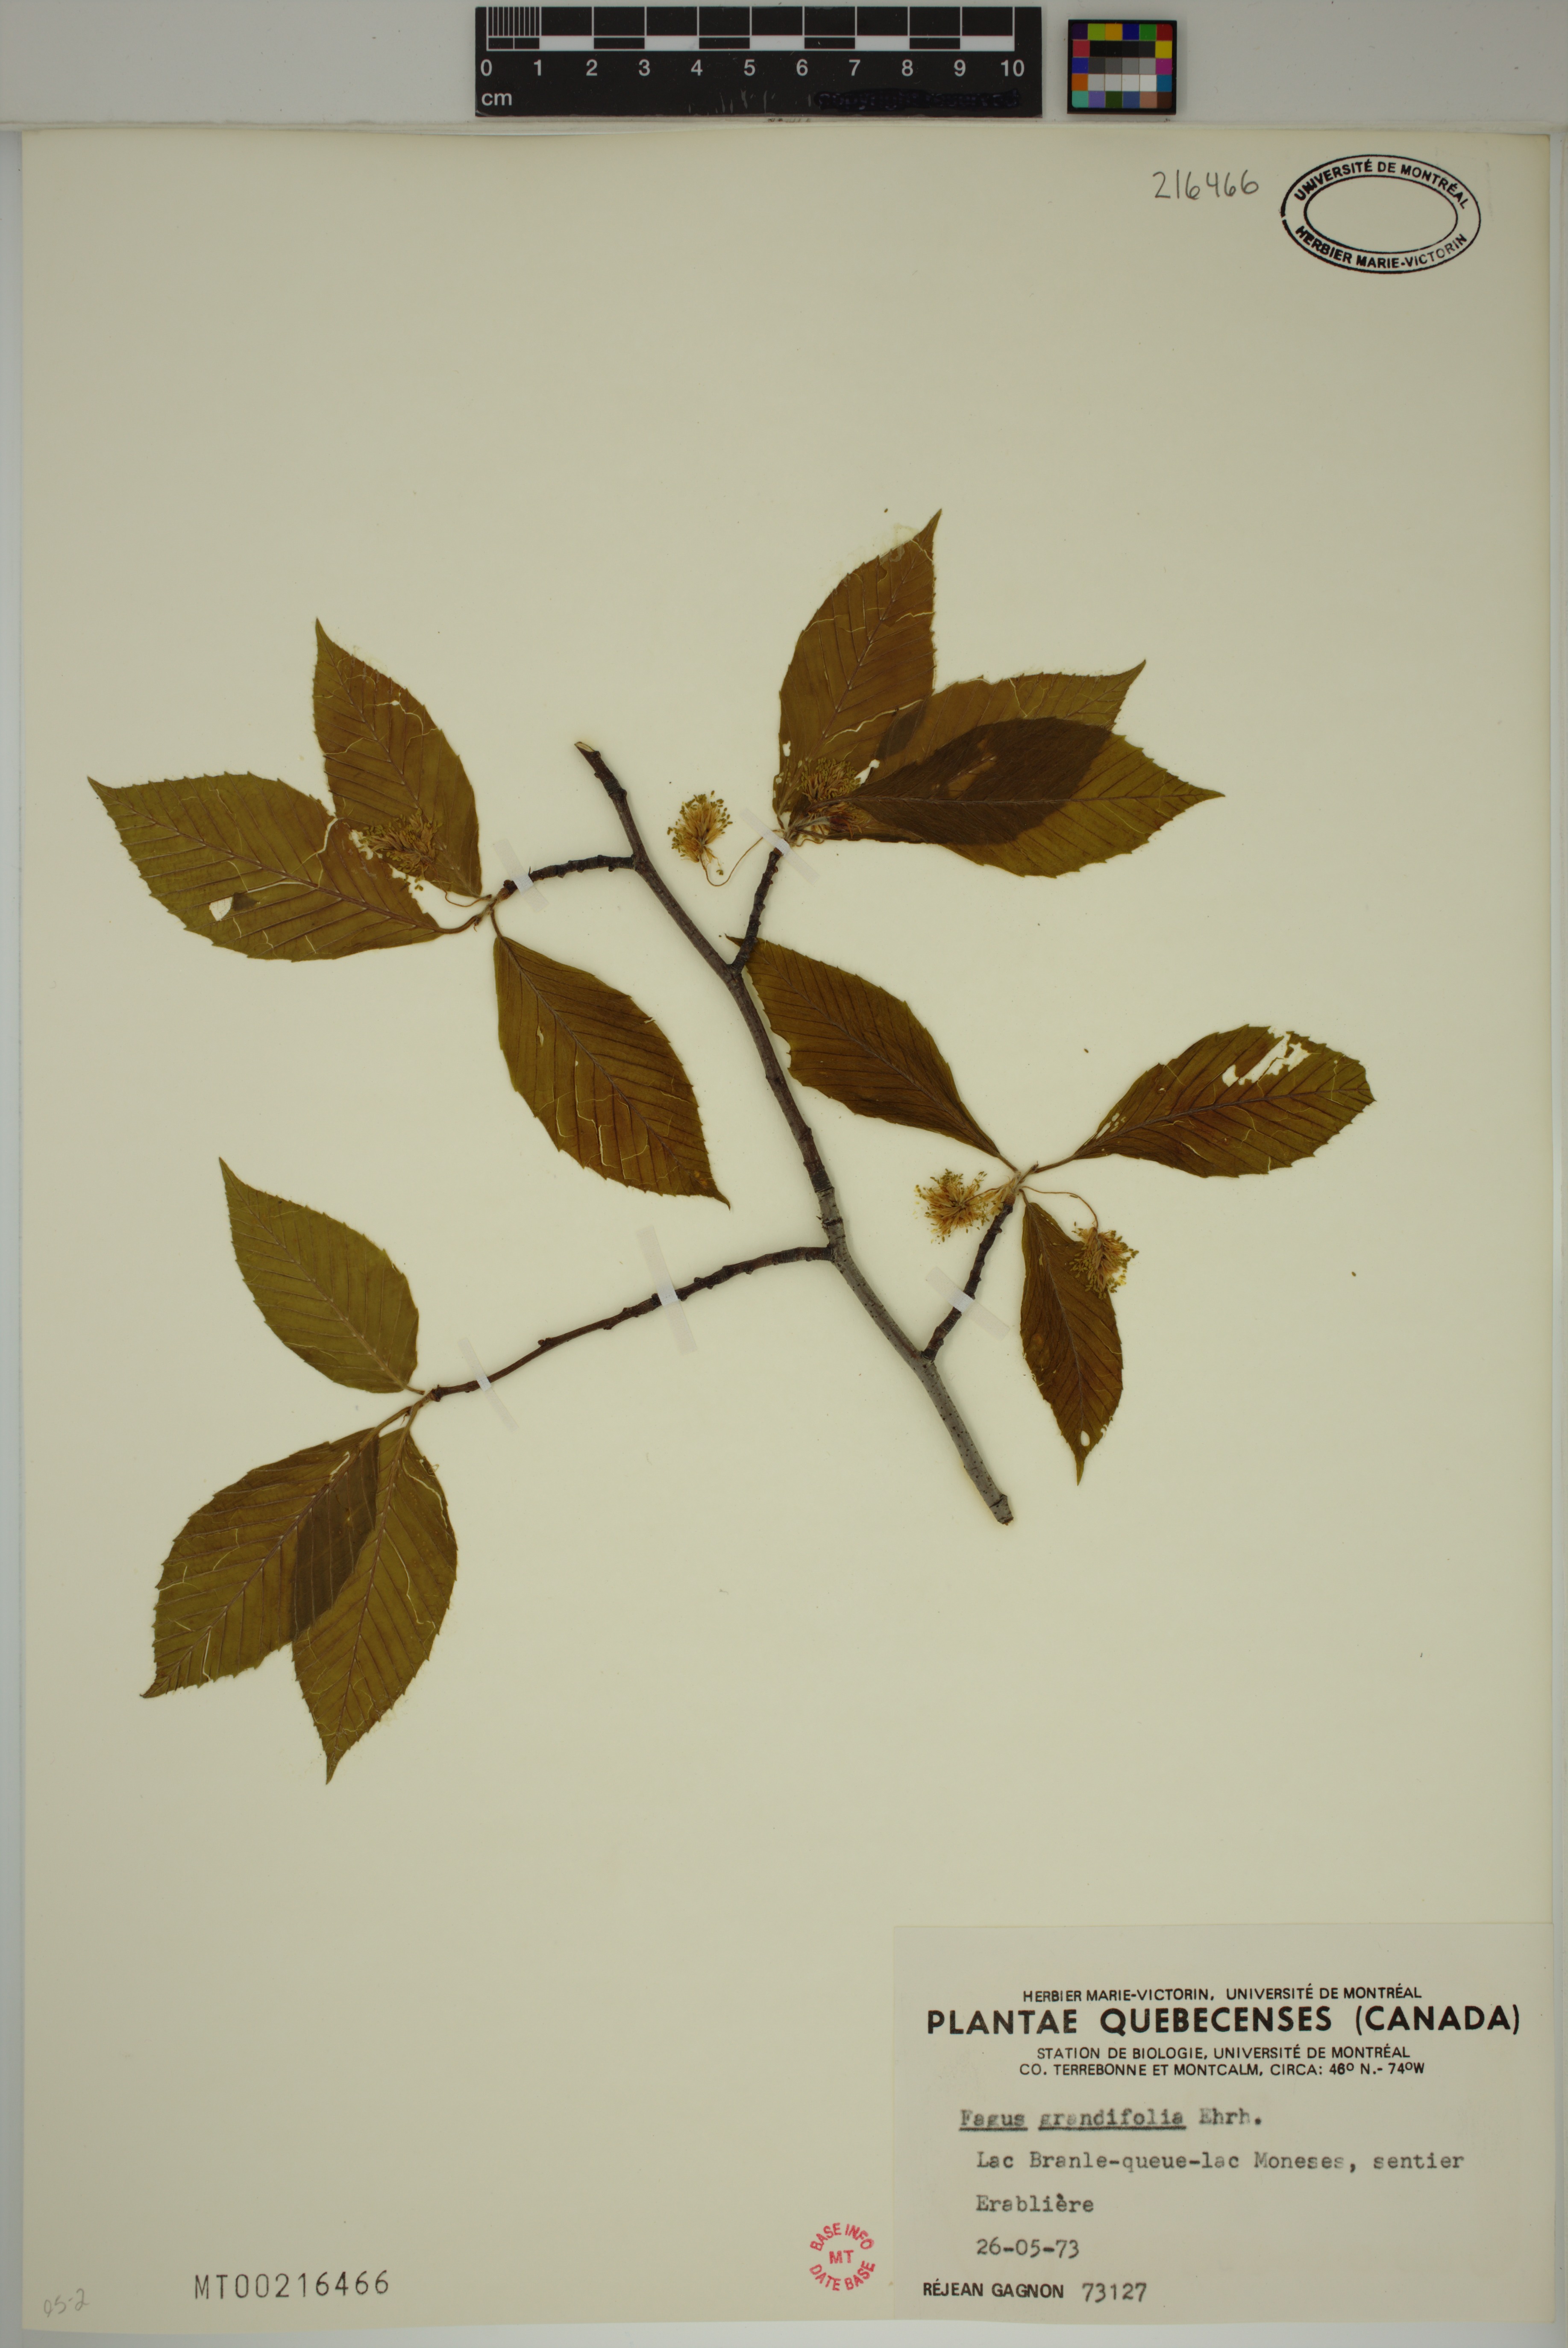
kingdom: Plantae
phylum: Tracheophyta
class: Magnoliopsida
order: Fagales
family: Fagaceae
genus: Fagus
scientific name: Fagus grandifolia
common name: American beech
